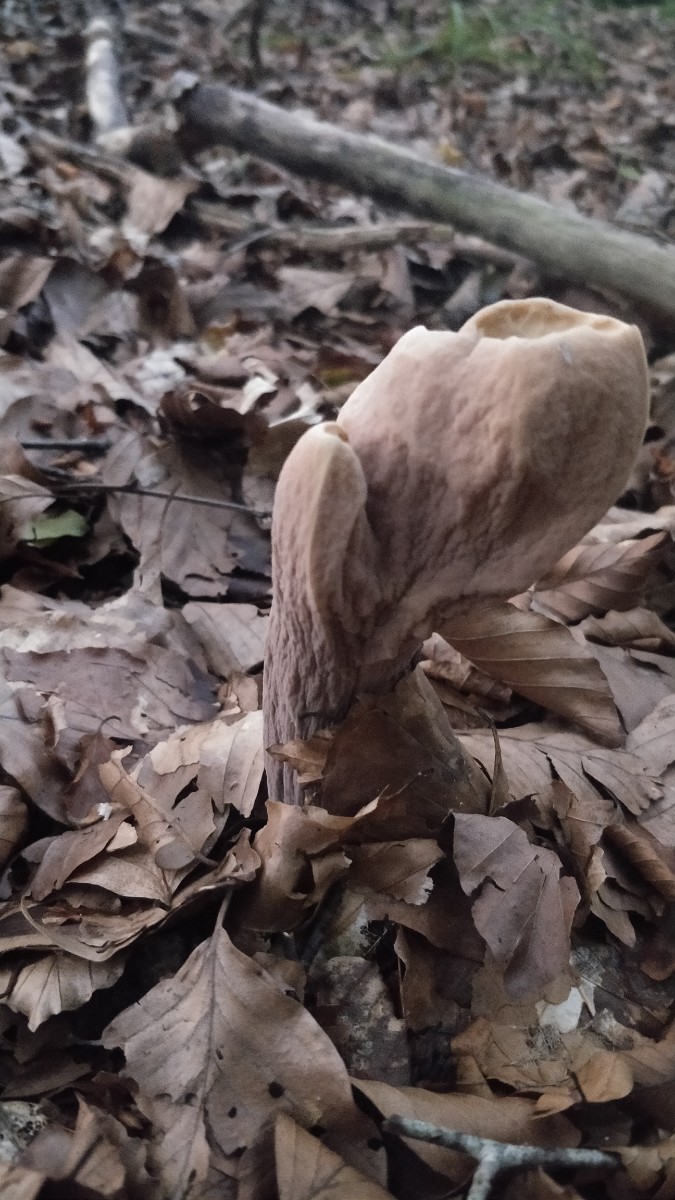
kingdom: Fungi
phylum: Basidiomycota
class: Agaricomycetes
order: Gomphales
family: Clavariadelphaceae
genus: Clavariadelphus
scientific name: Clavariadelphus pistillaris
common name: herkules-kæmpekølle
